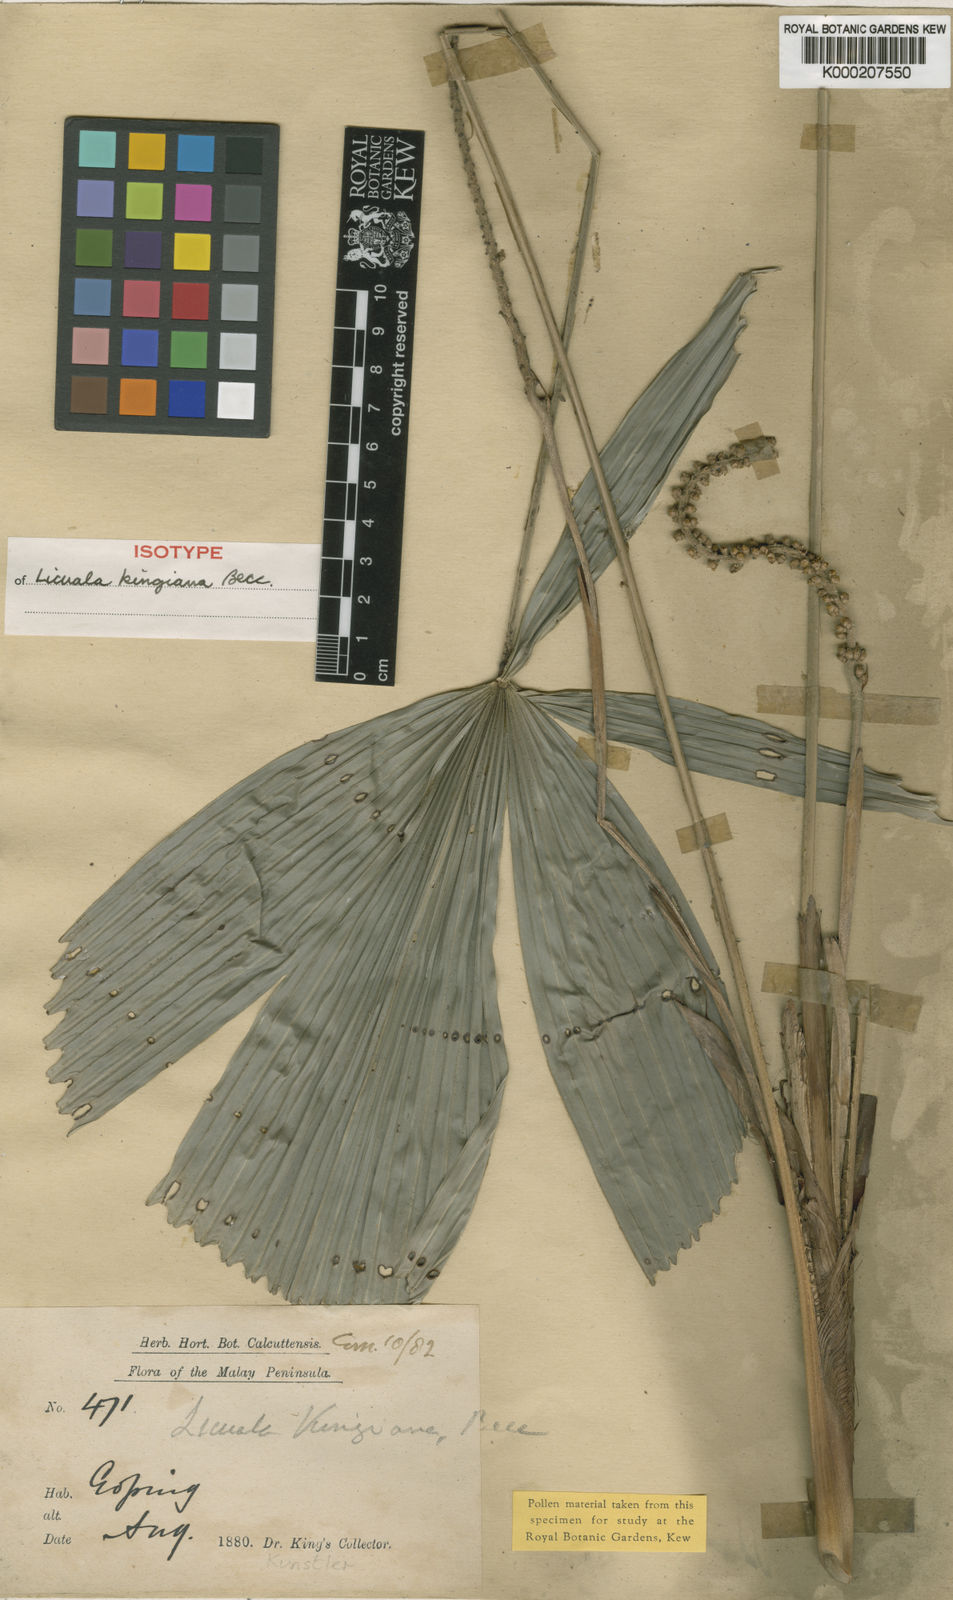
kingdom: Plantae
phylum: Tracheophyta
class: Liliopsida
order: Arecales
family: Arecaceae
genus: Licuala
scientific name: Licuala kingiana
